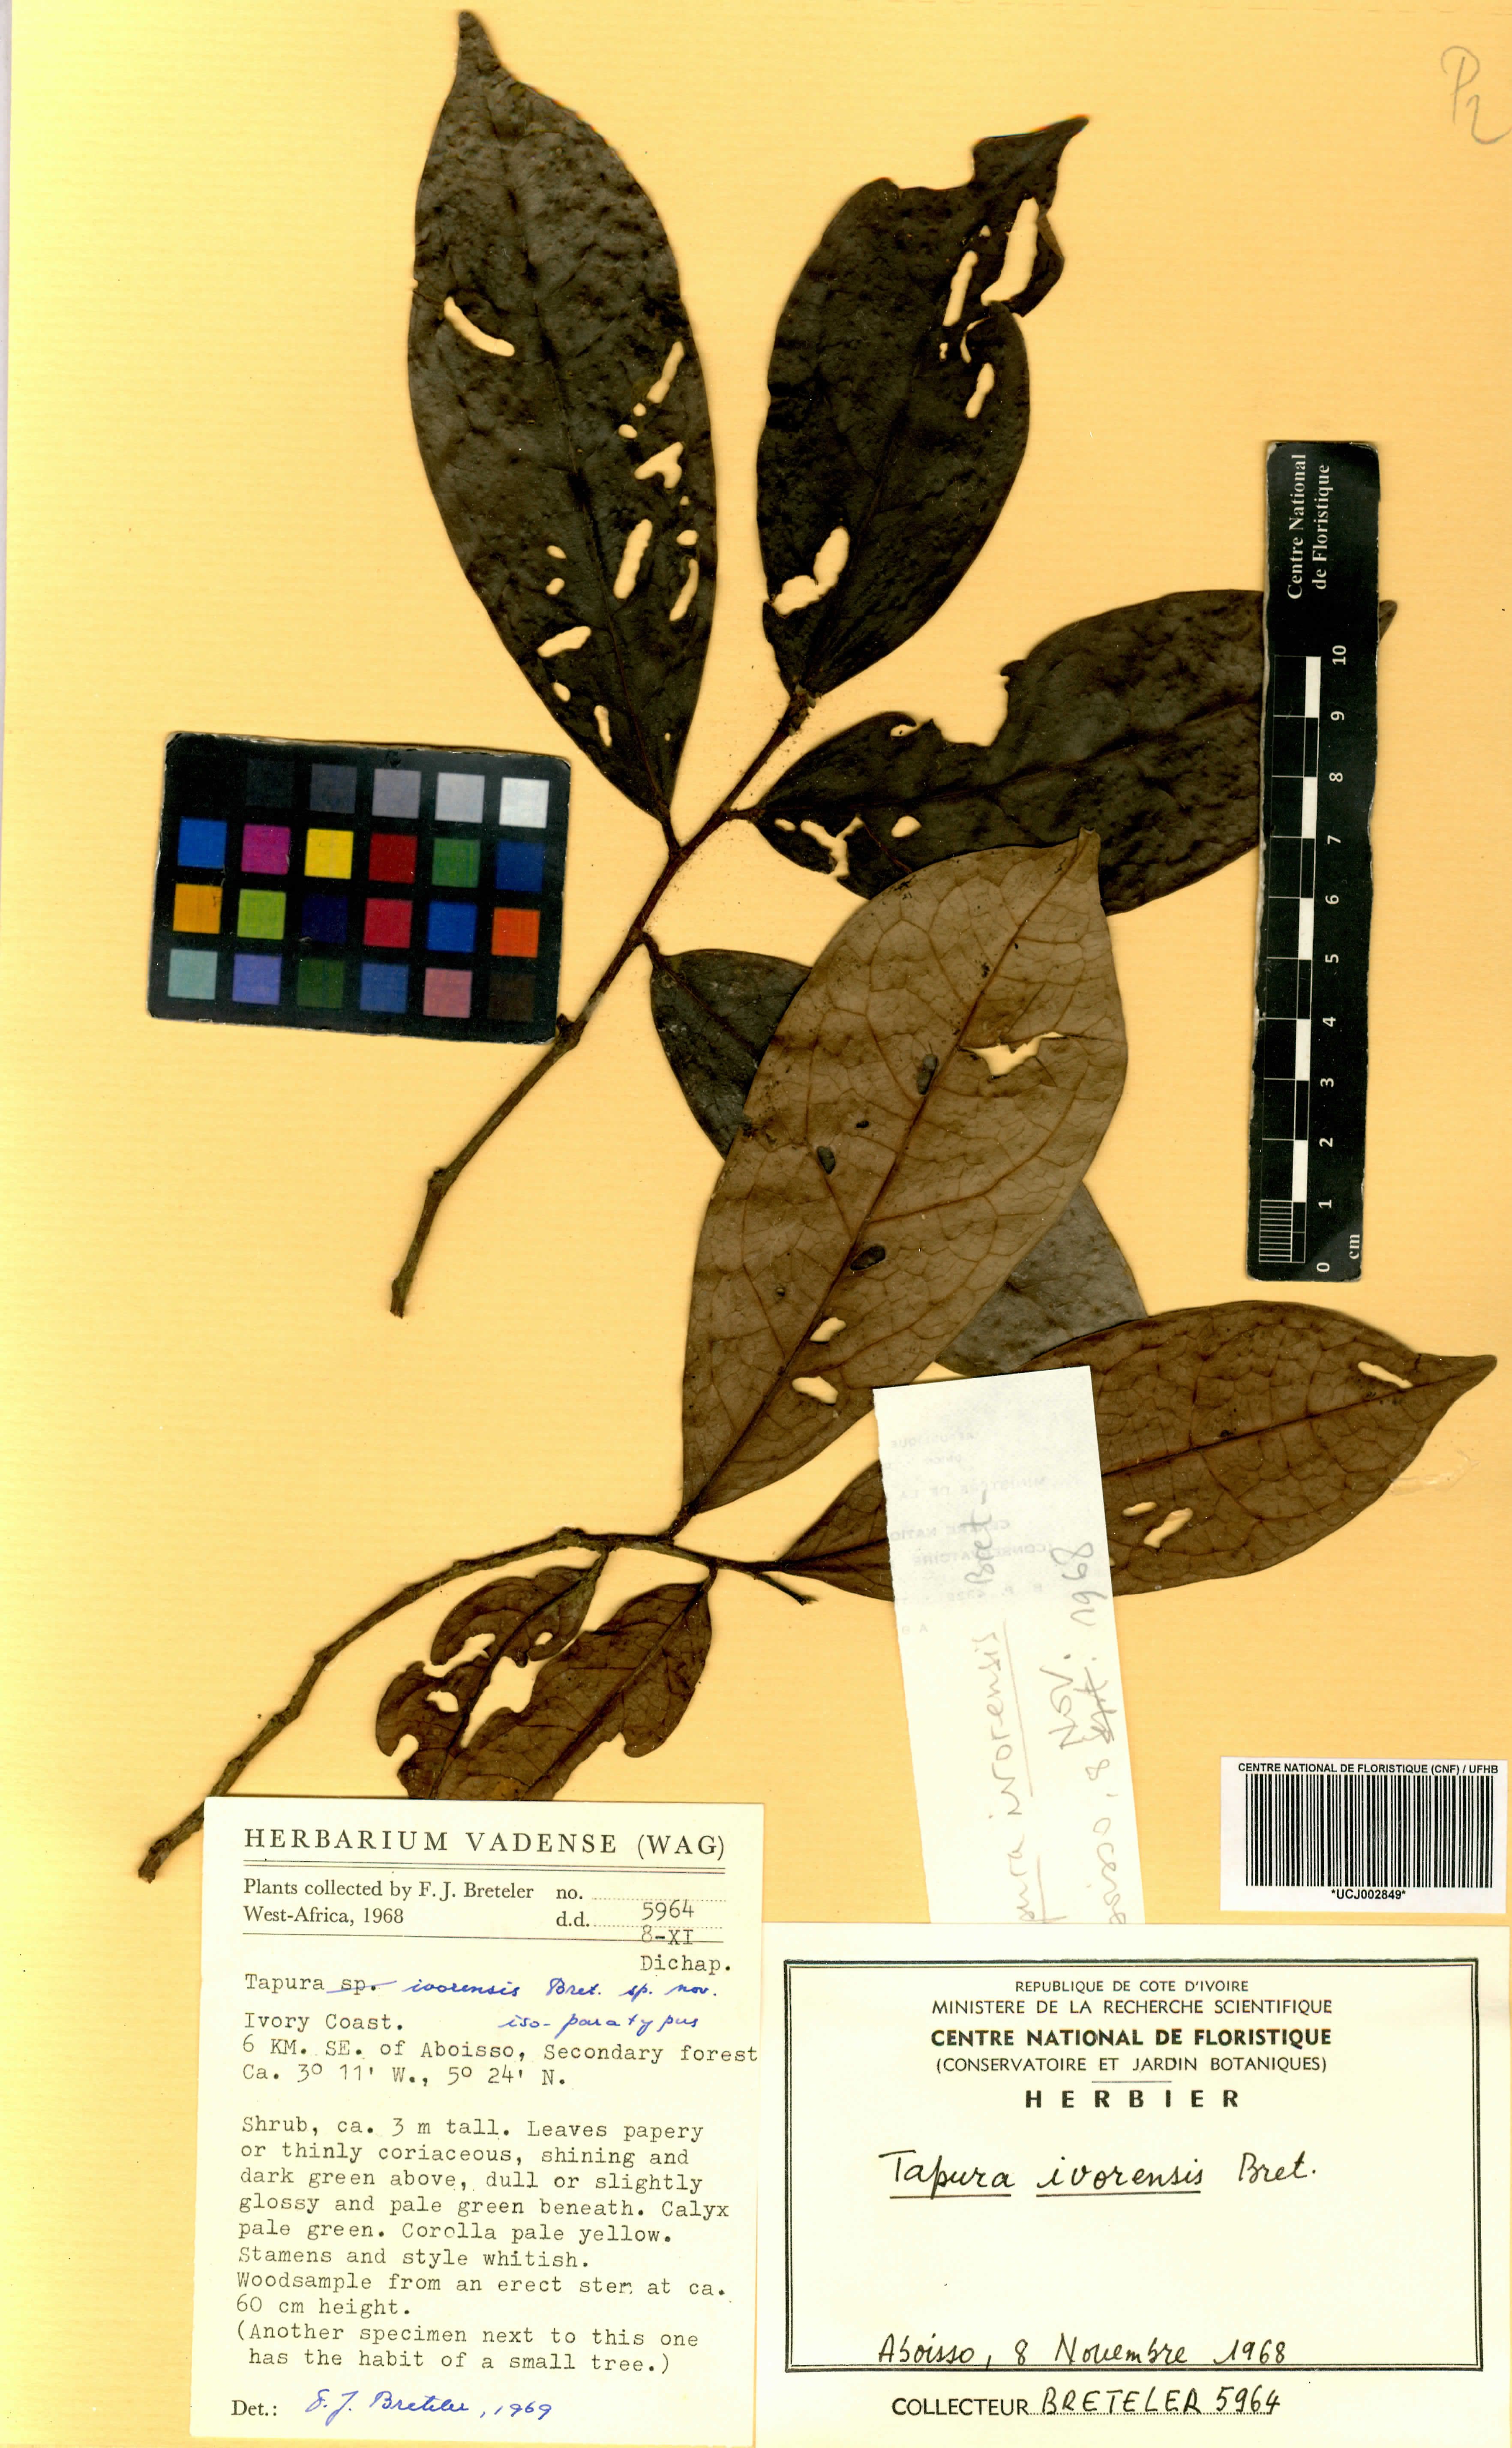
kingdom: Plantae
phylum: Tracheophyta
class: Magnoliopsida
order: Malpighiales
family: Dichapetalaceae
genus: Tapura
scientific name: Tapura ivorensis
